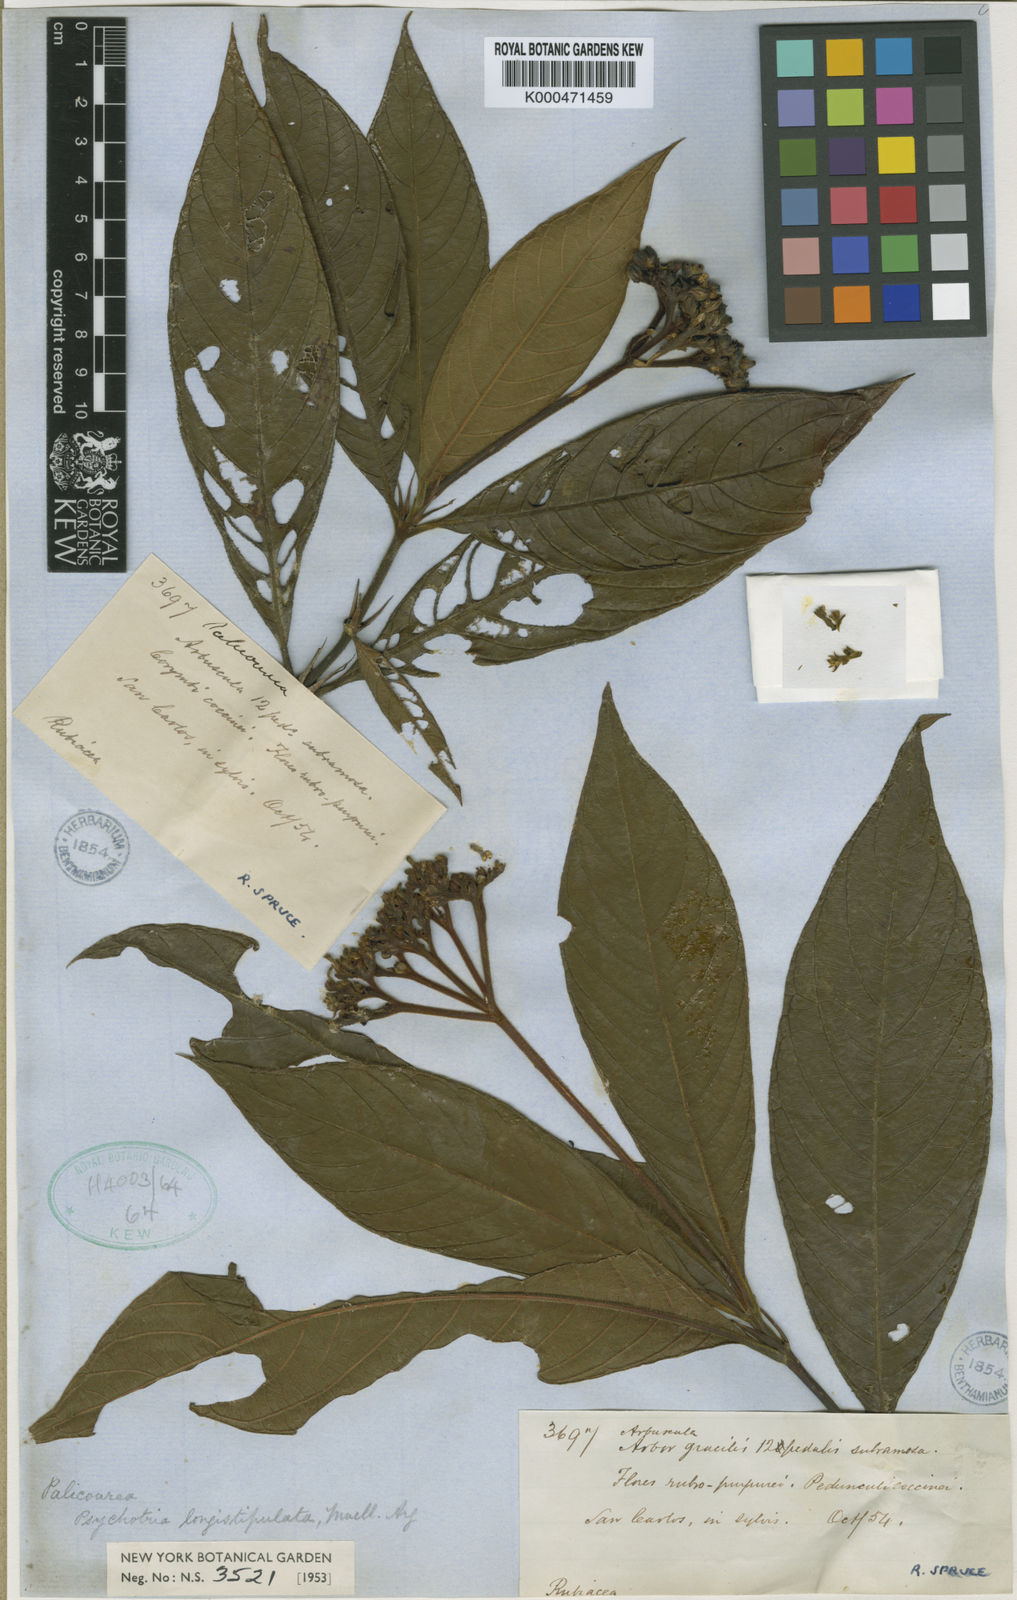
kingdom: Plantae
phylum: Tracheophyta
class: Magnoliopsida
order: Gentianales
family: Rubiaceae
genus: Palicourea
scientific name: Palicourea longistipulata
